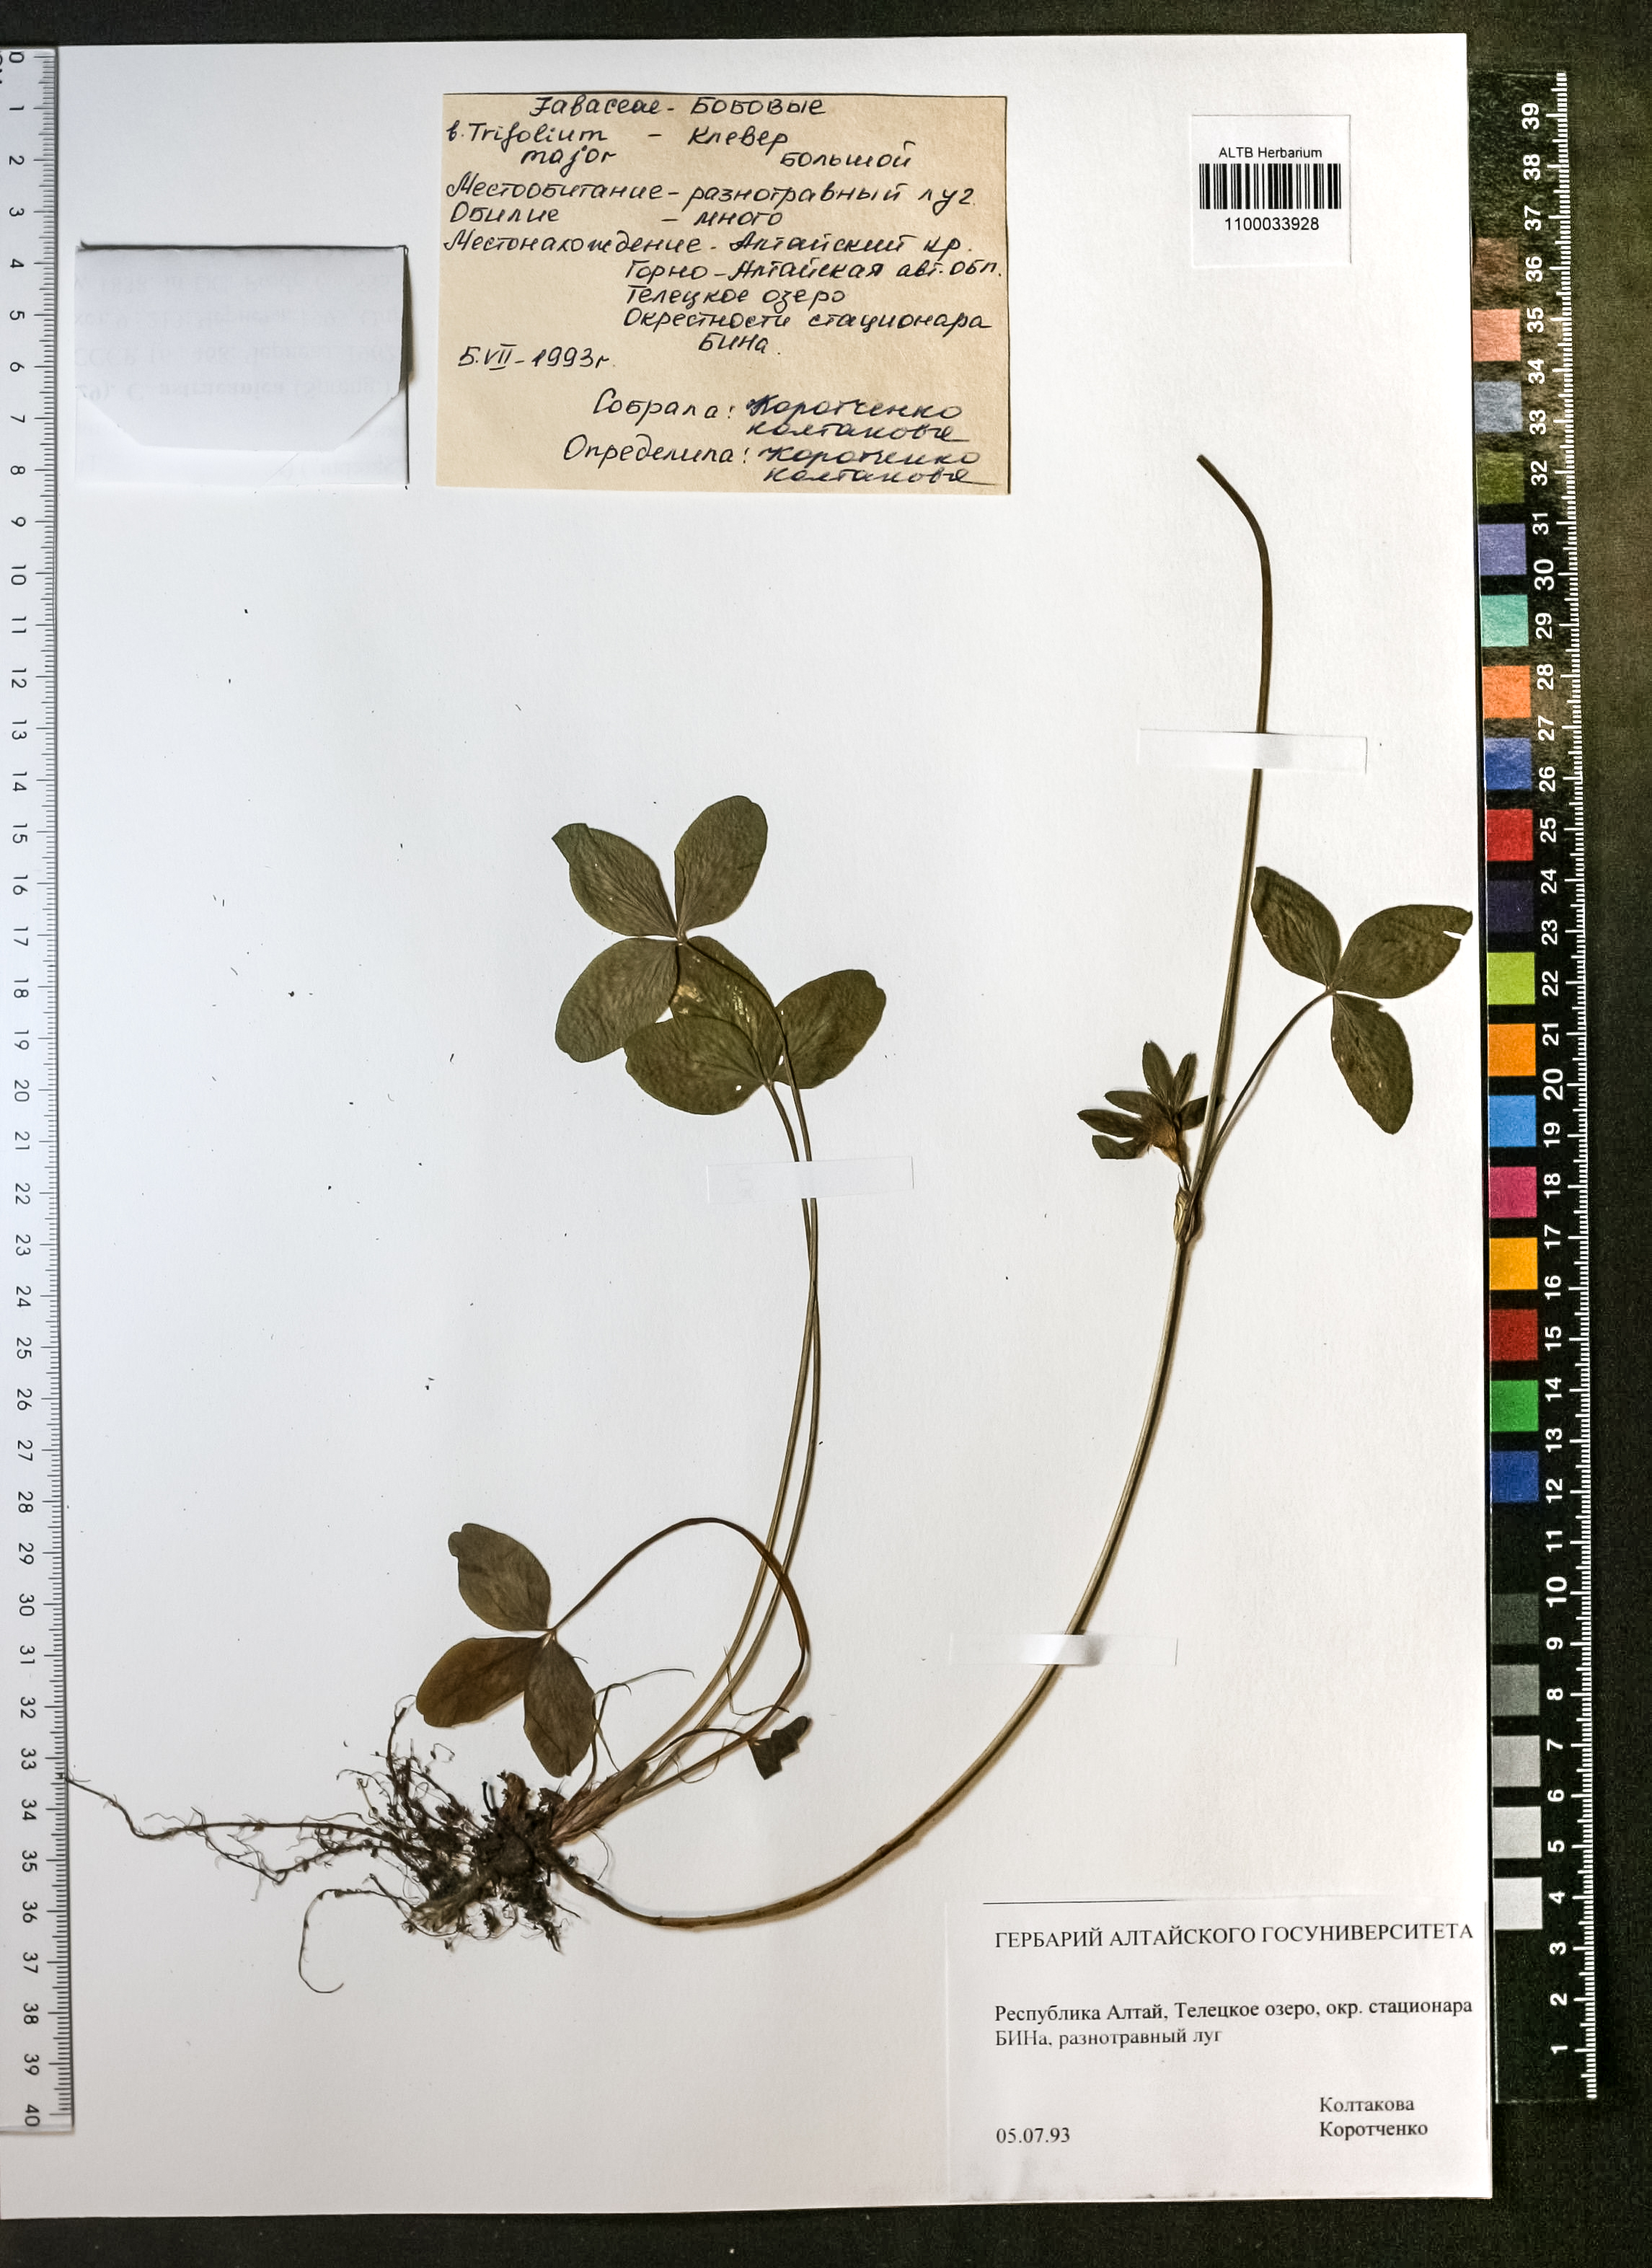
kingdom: Plantae
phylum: Tracheophyta
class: Magnoliopsida
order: Fabales
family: Fabaceae
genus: Trifolium
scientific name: Trifolium appendiculatum
